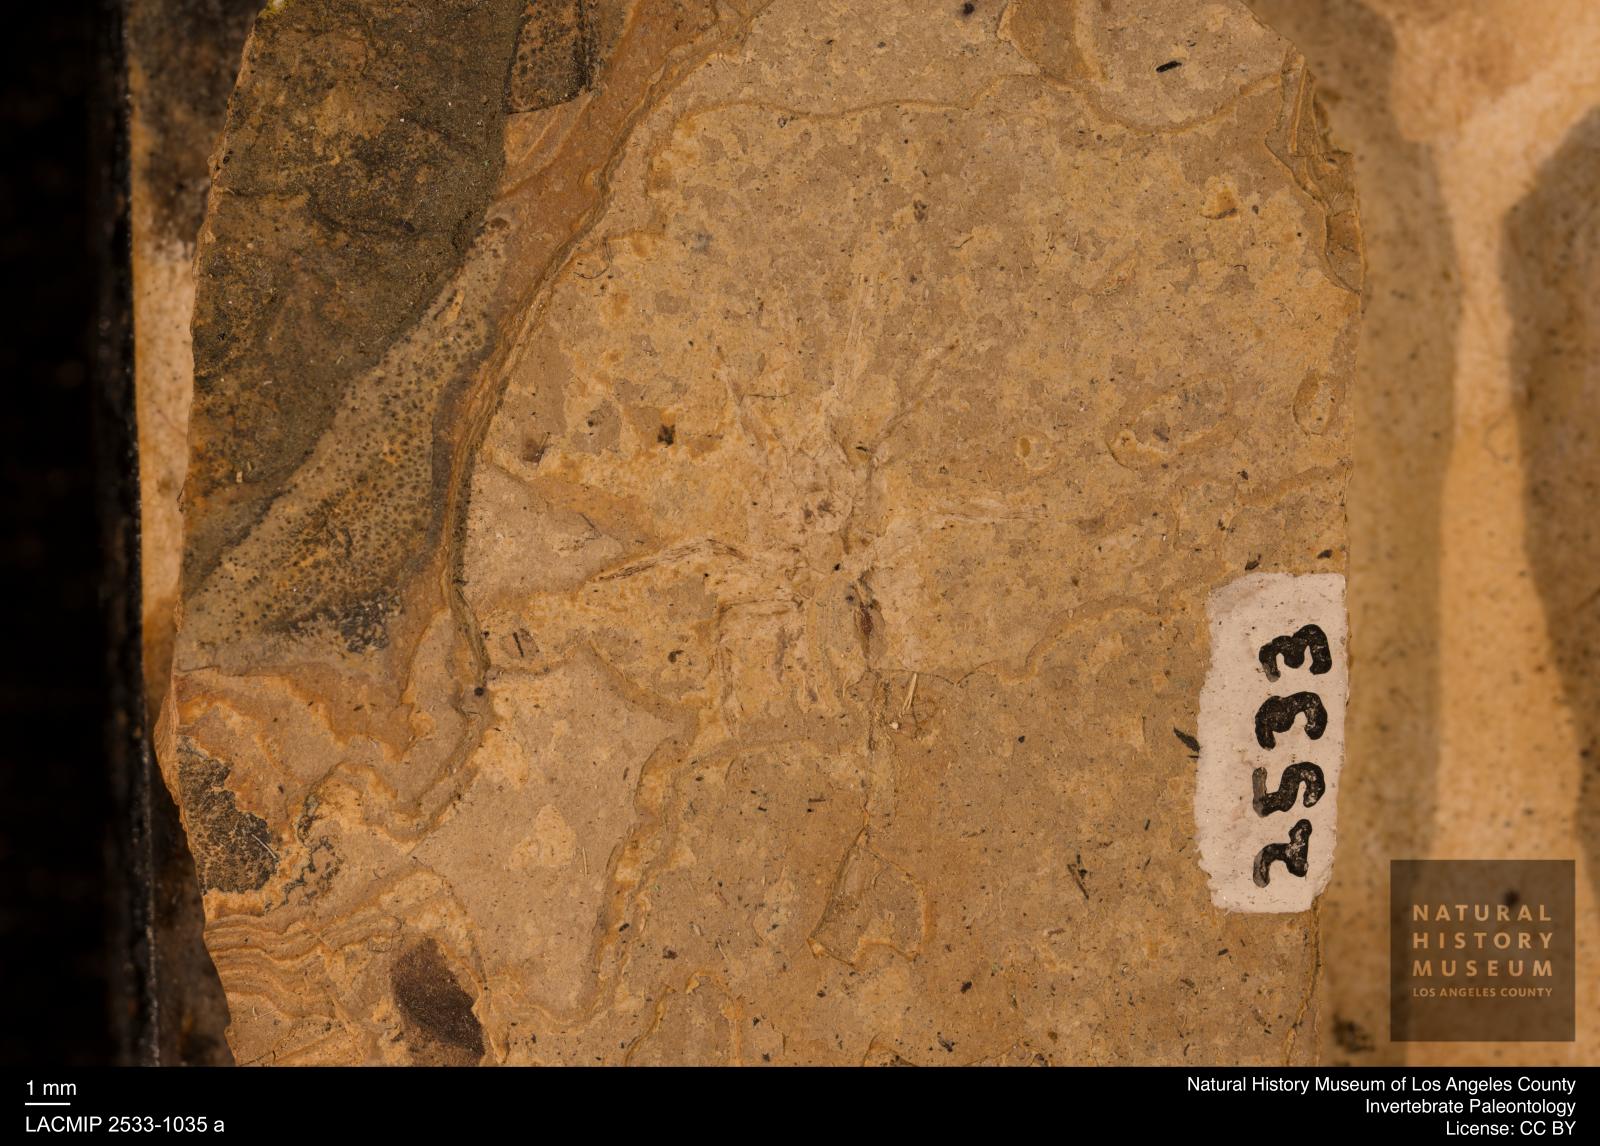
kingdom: Animalia
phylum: Arthropoda
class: Arachnida
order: Araneae
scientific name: Araneae
